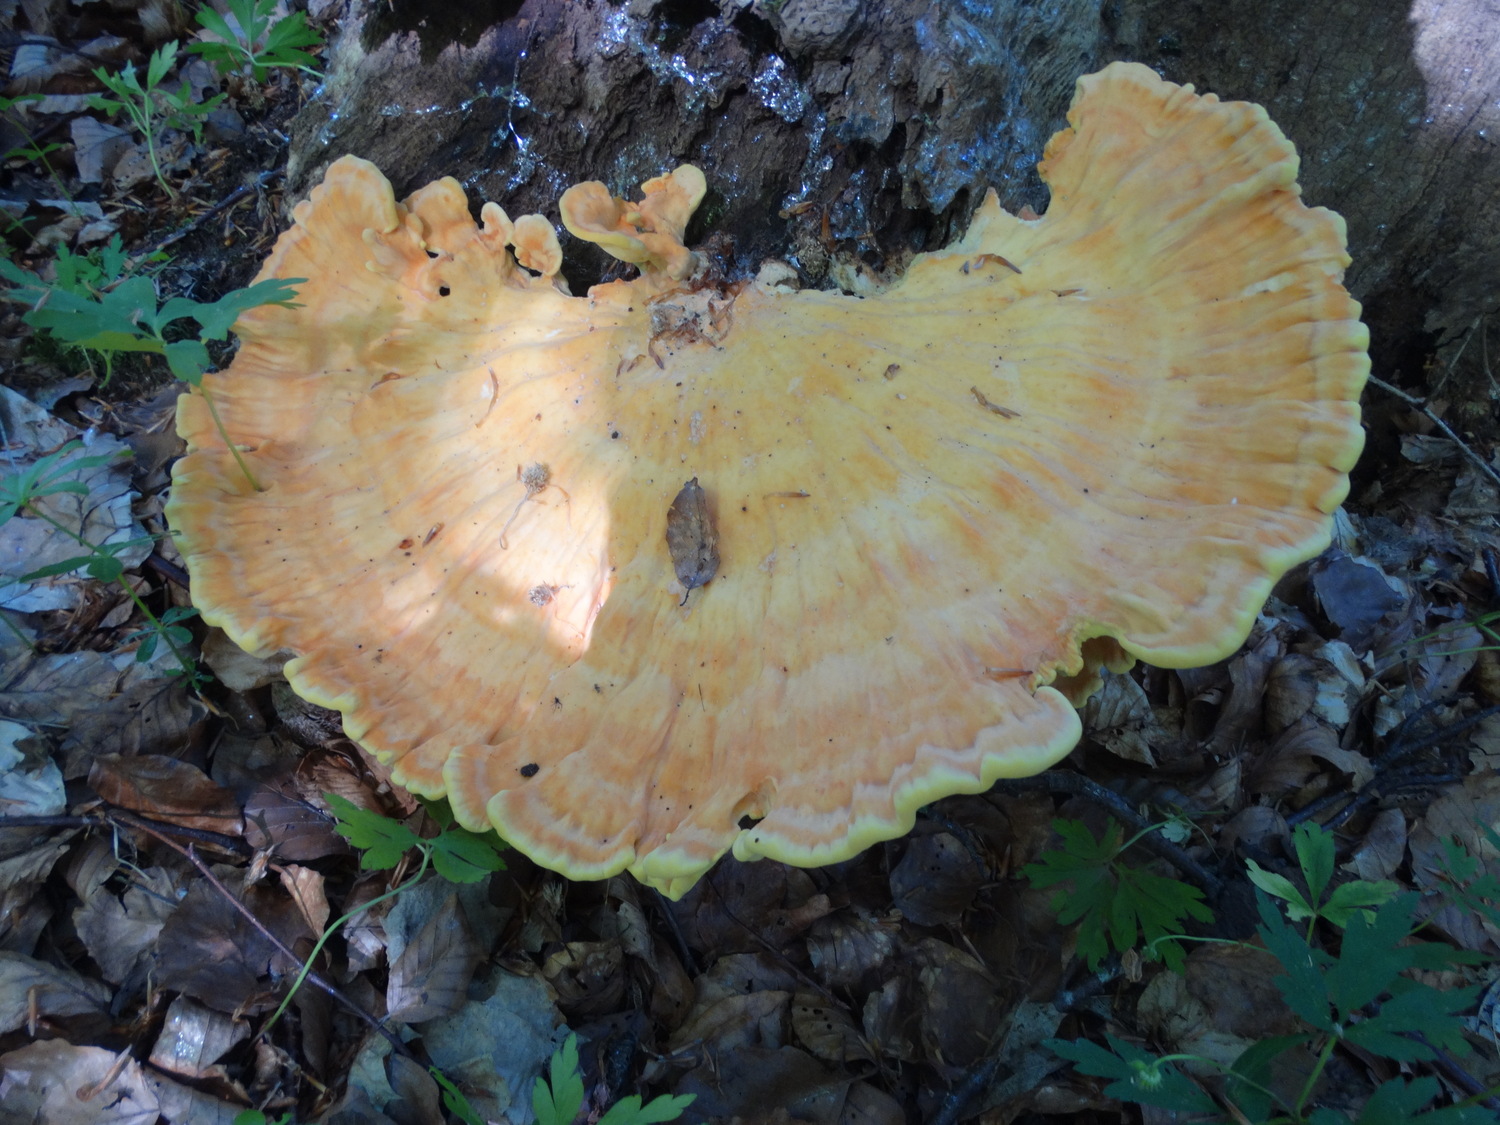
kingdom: Fungi
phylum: Basidiomycota
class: Agaricomycetes
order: Polyporales
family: Laetiporaceae
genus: Laetiporus
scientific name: Laetiporus sulphureus
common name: svovlporesvamp
